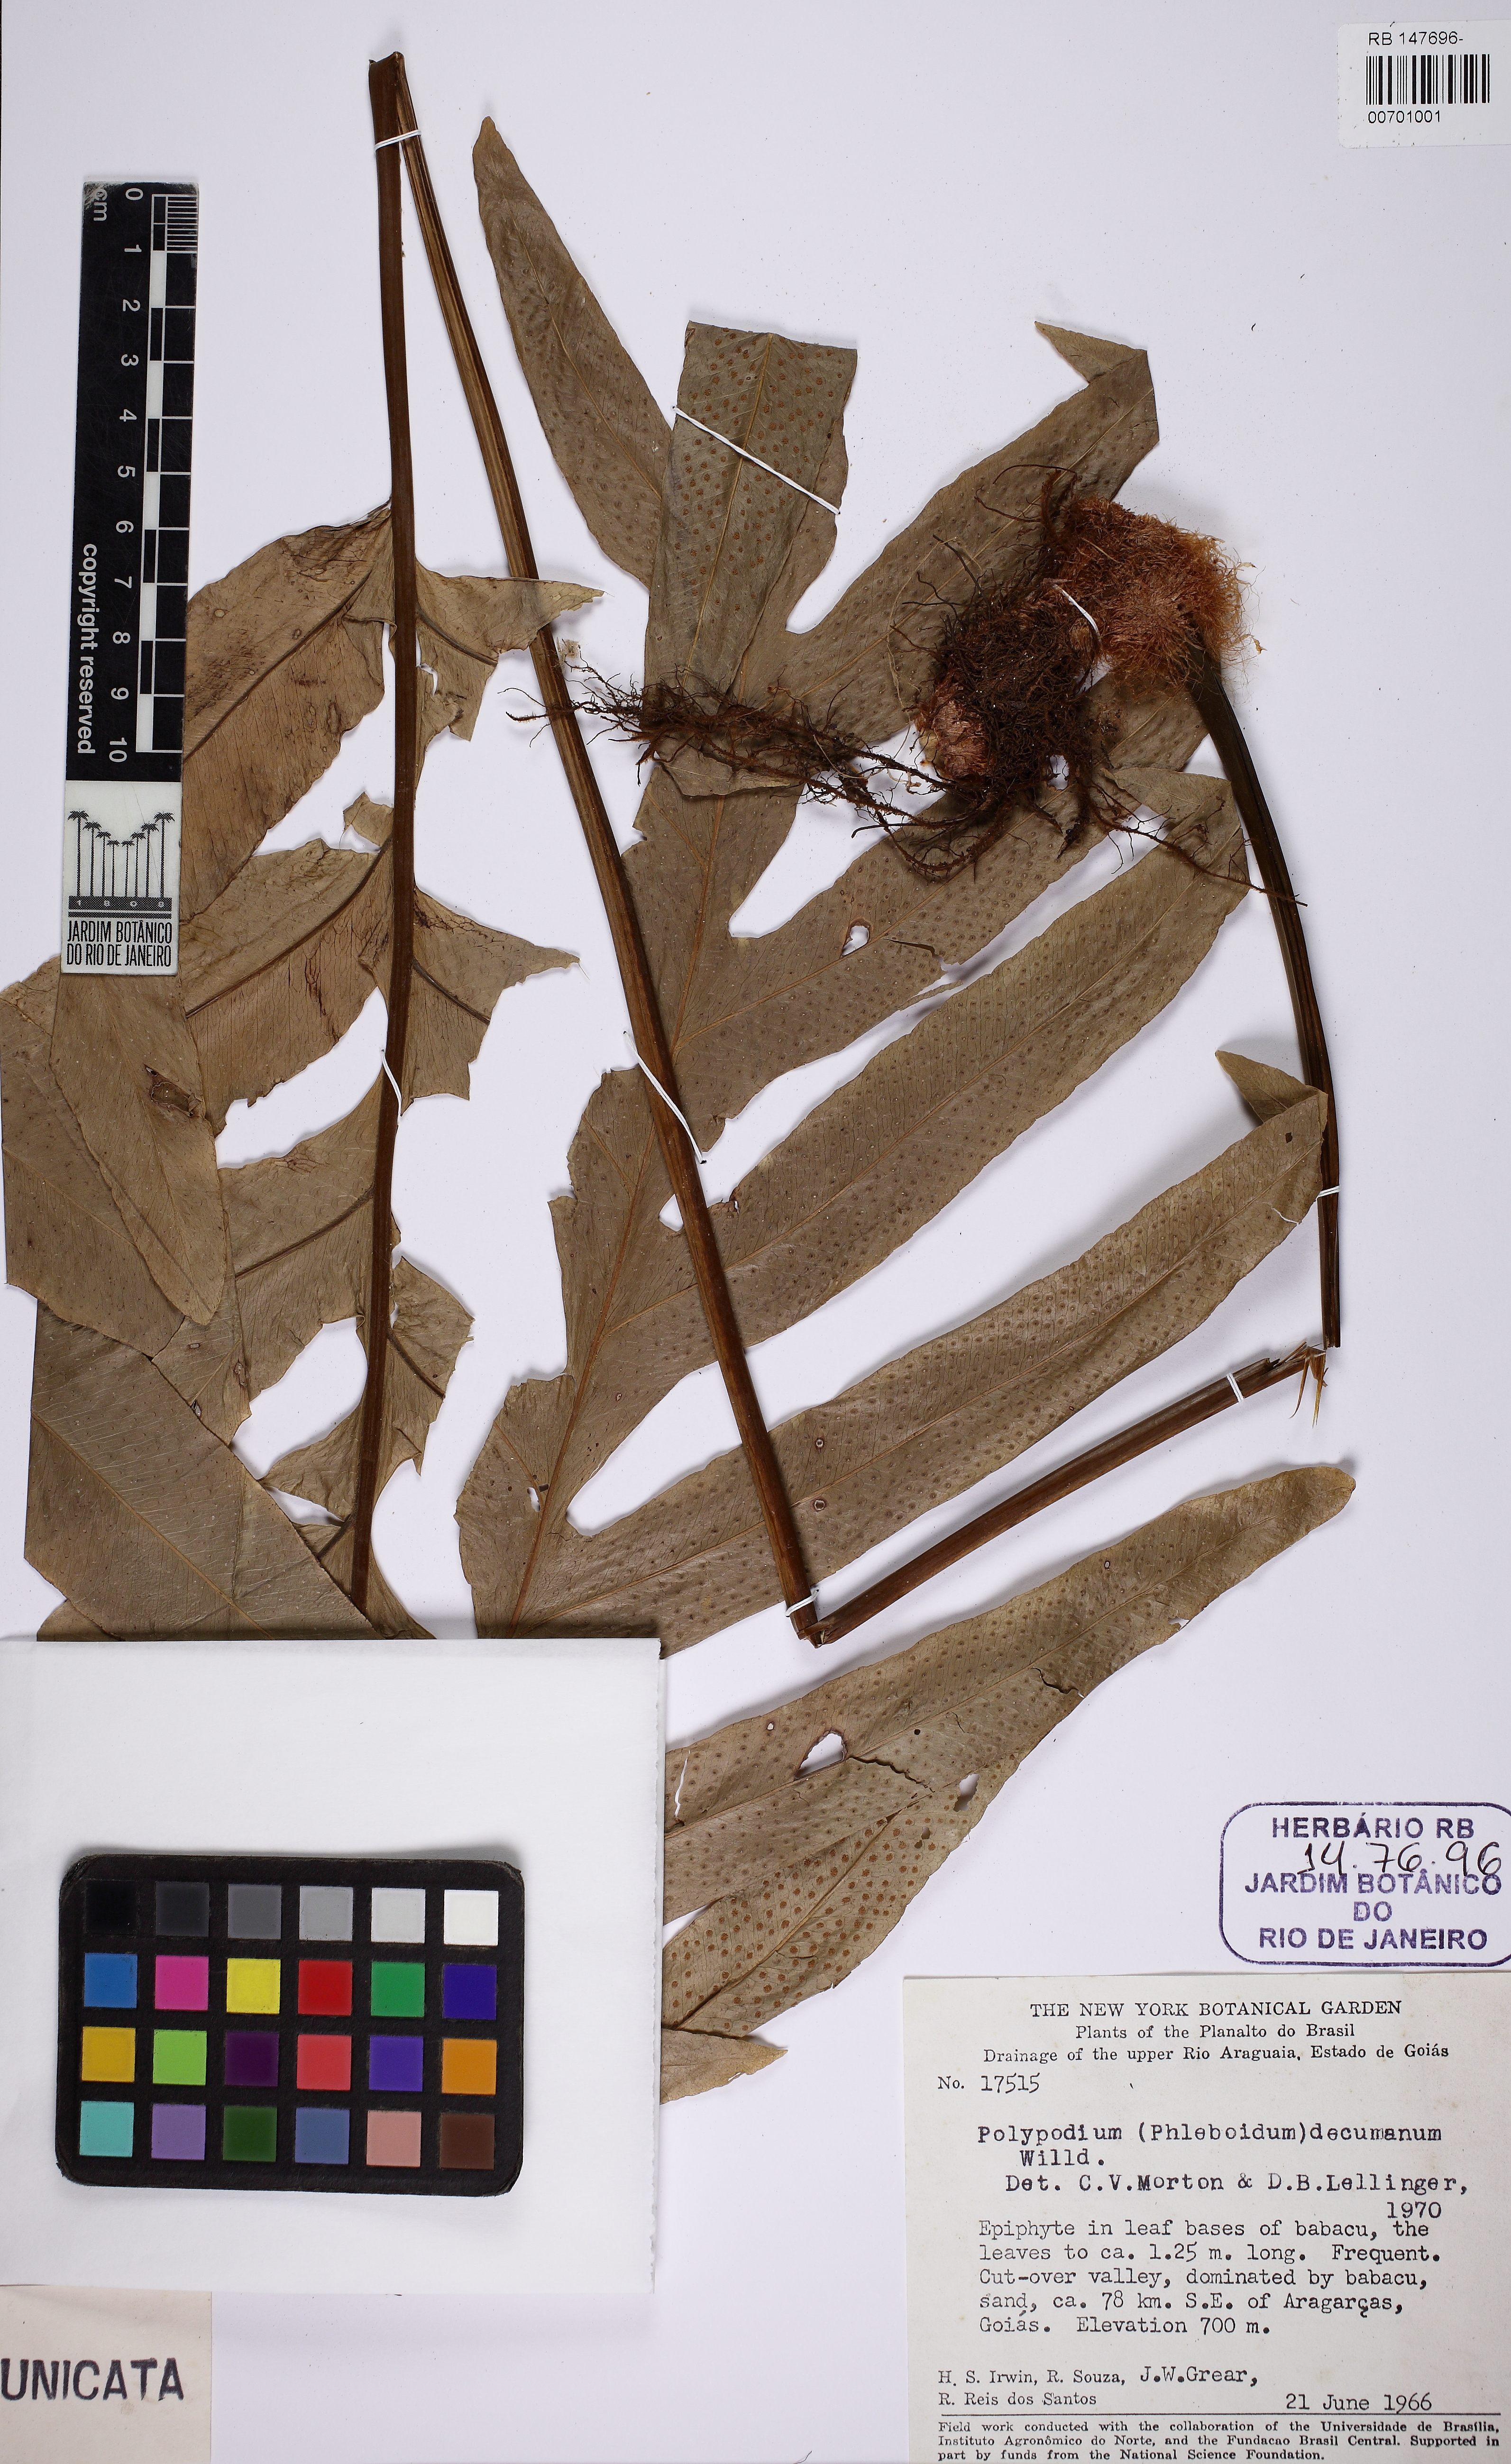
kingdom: Plantae
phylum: Tracheophyta
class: Polypodiopsida
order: Polypodiales
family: Polypodiaceae
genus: Phlebodium
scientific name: Phlebodium decumanum
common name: Golden polypod
